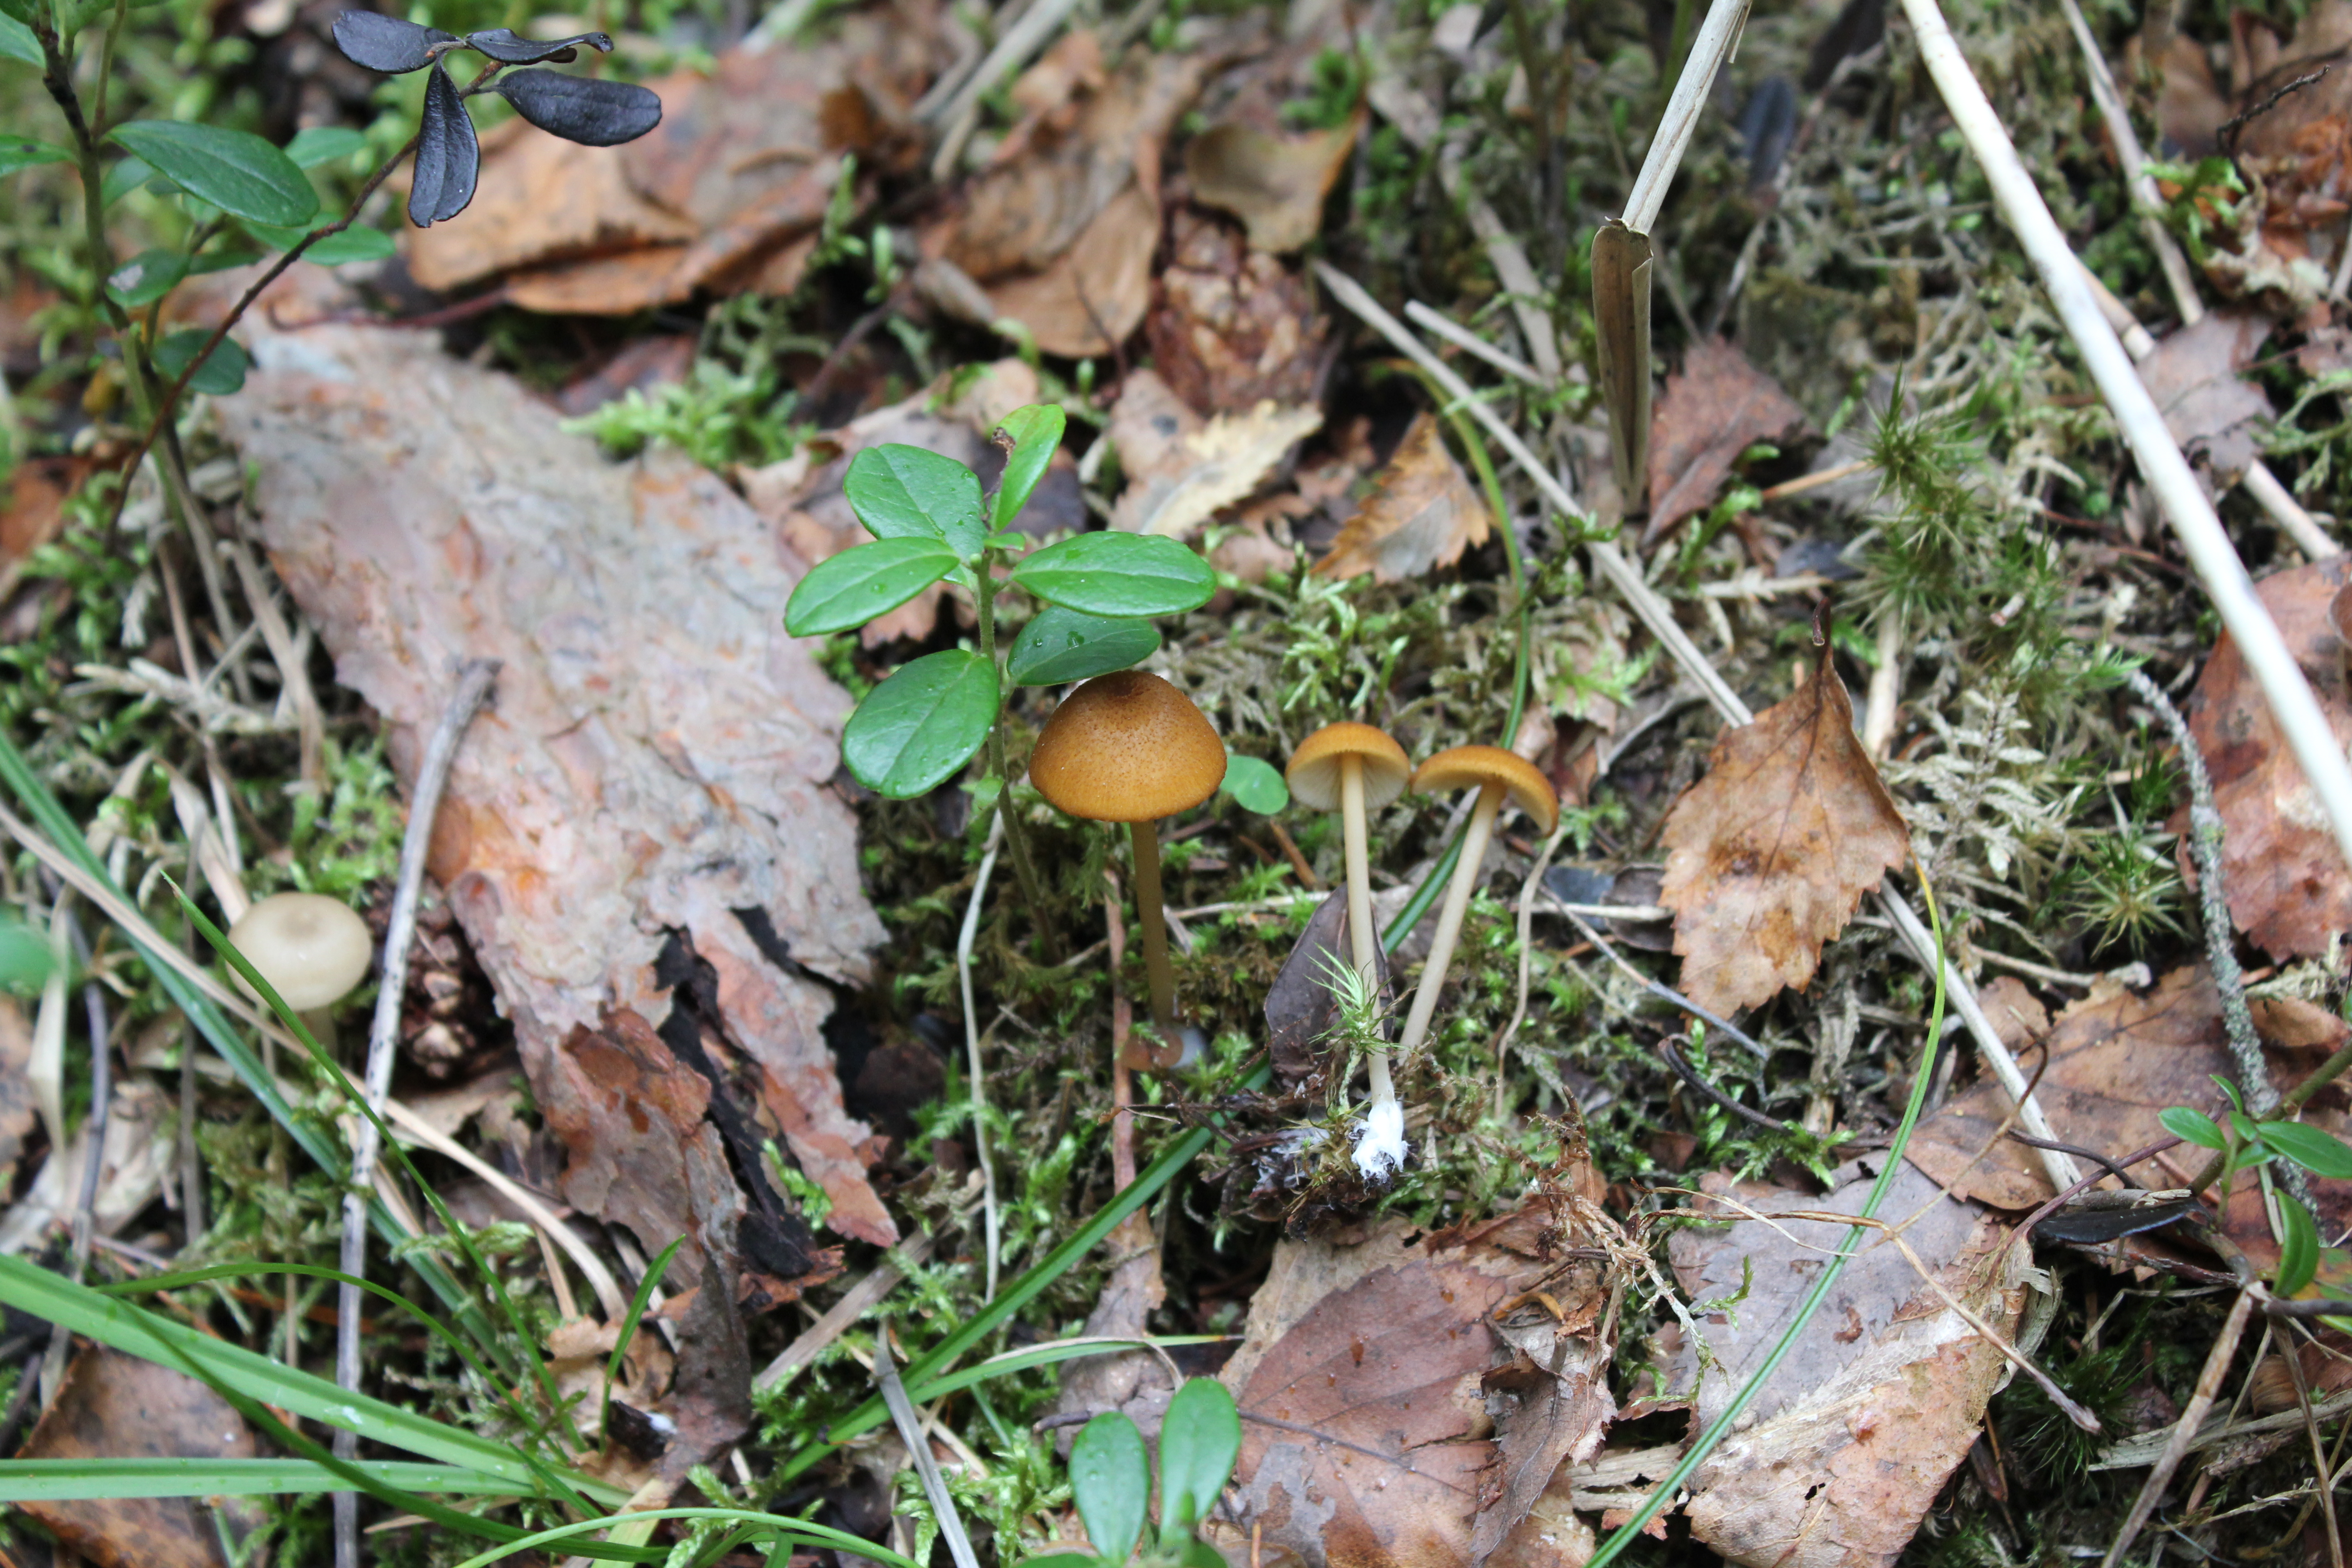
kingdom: Fungi
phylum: Basidiomycota
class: Agaricomycetes
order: Agaricales
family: Entolomataceae
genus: Entoloma
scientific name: Entoloma formosum
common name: Pretty pinkgill
